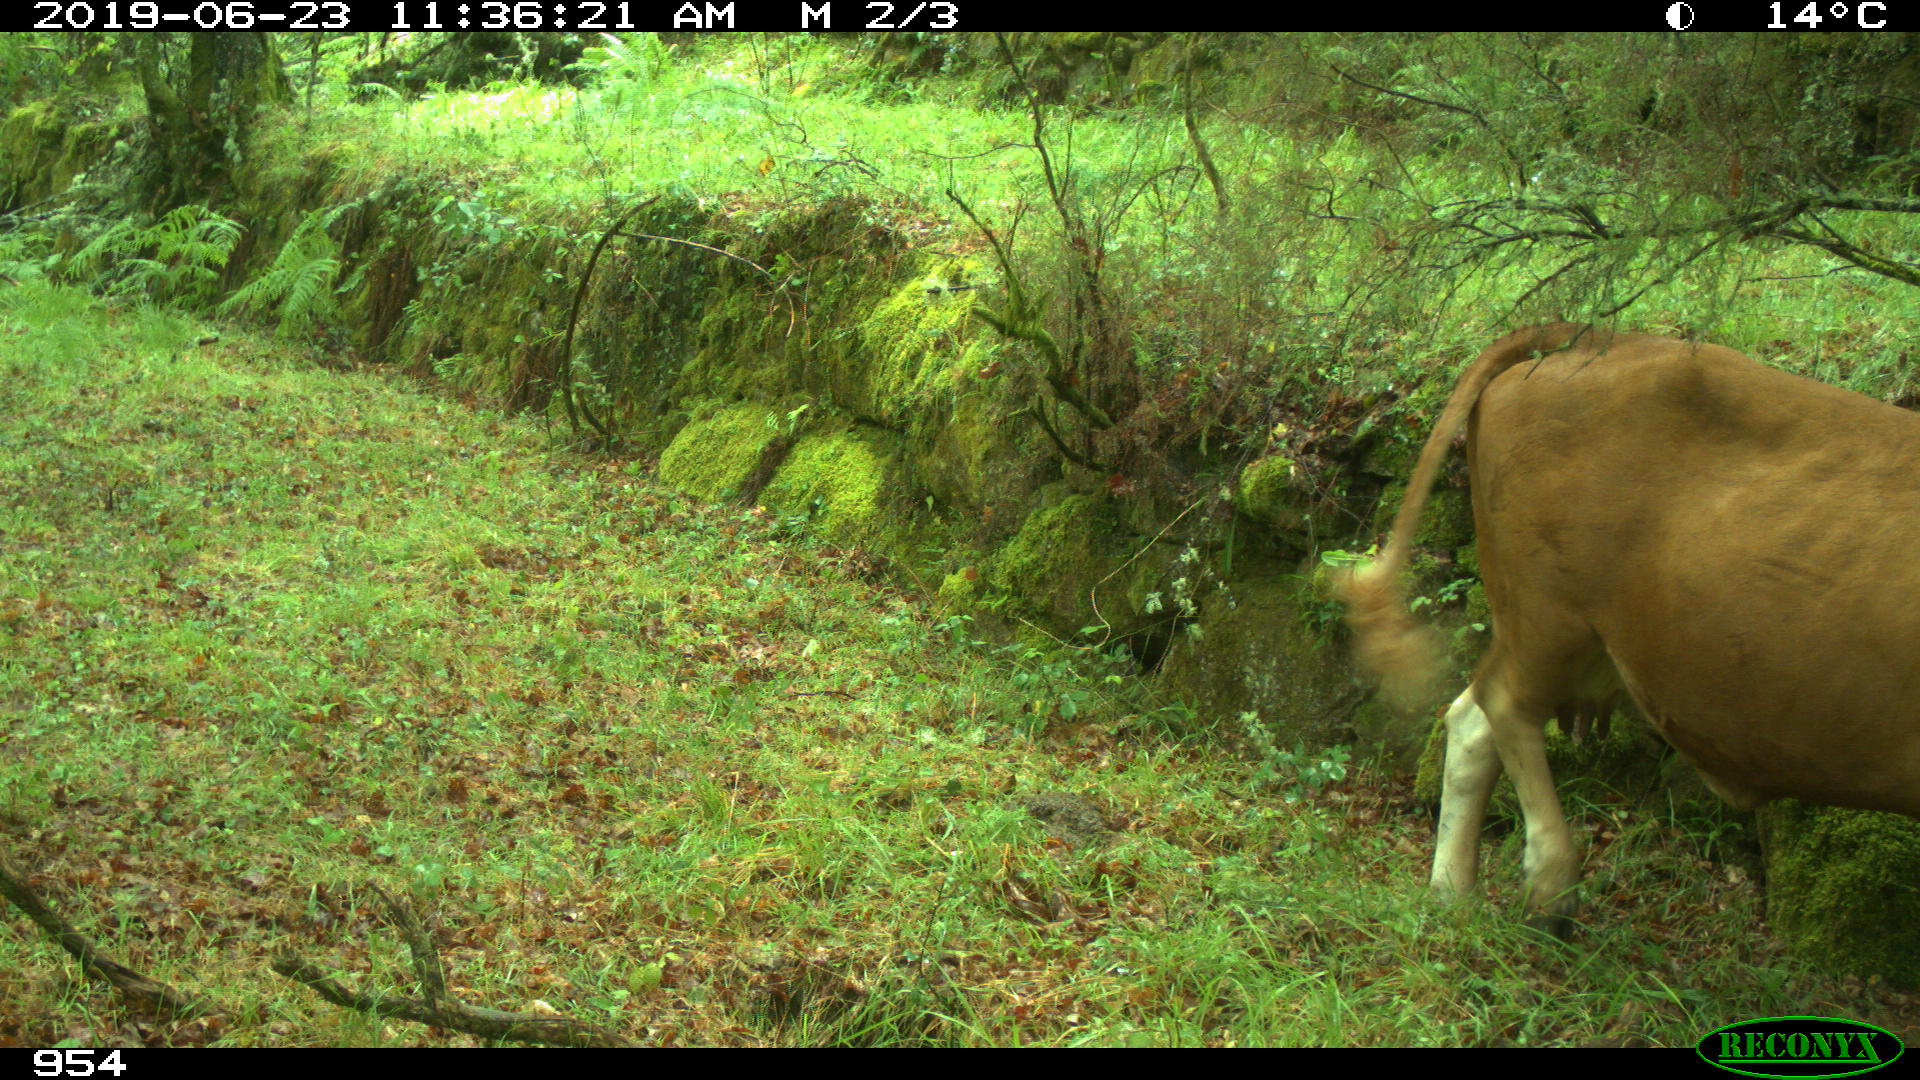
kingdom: Animalia
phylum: Chordata
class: Mammalia
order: Artiodactyla
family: Bovidae
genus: Bos
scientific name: Bos taurus
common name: Domesticated cattle
